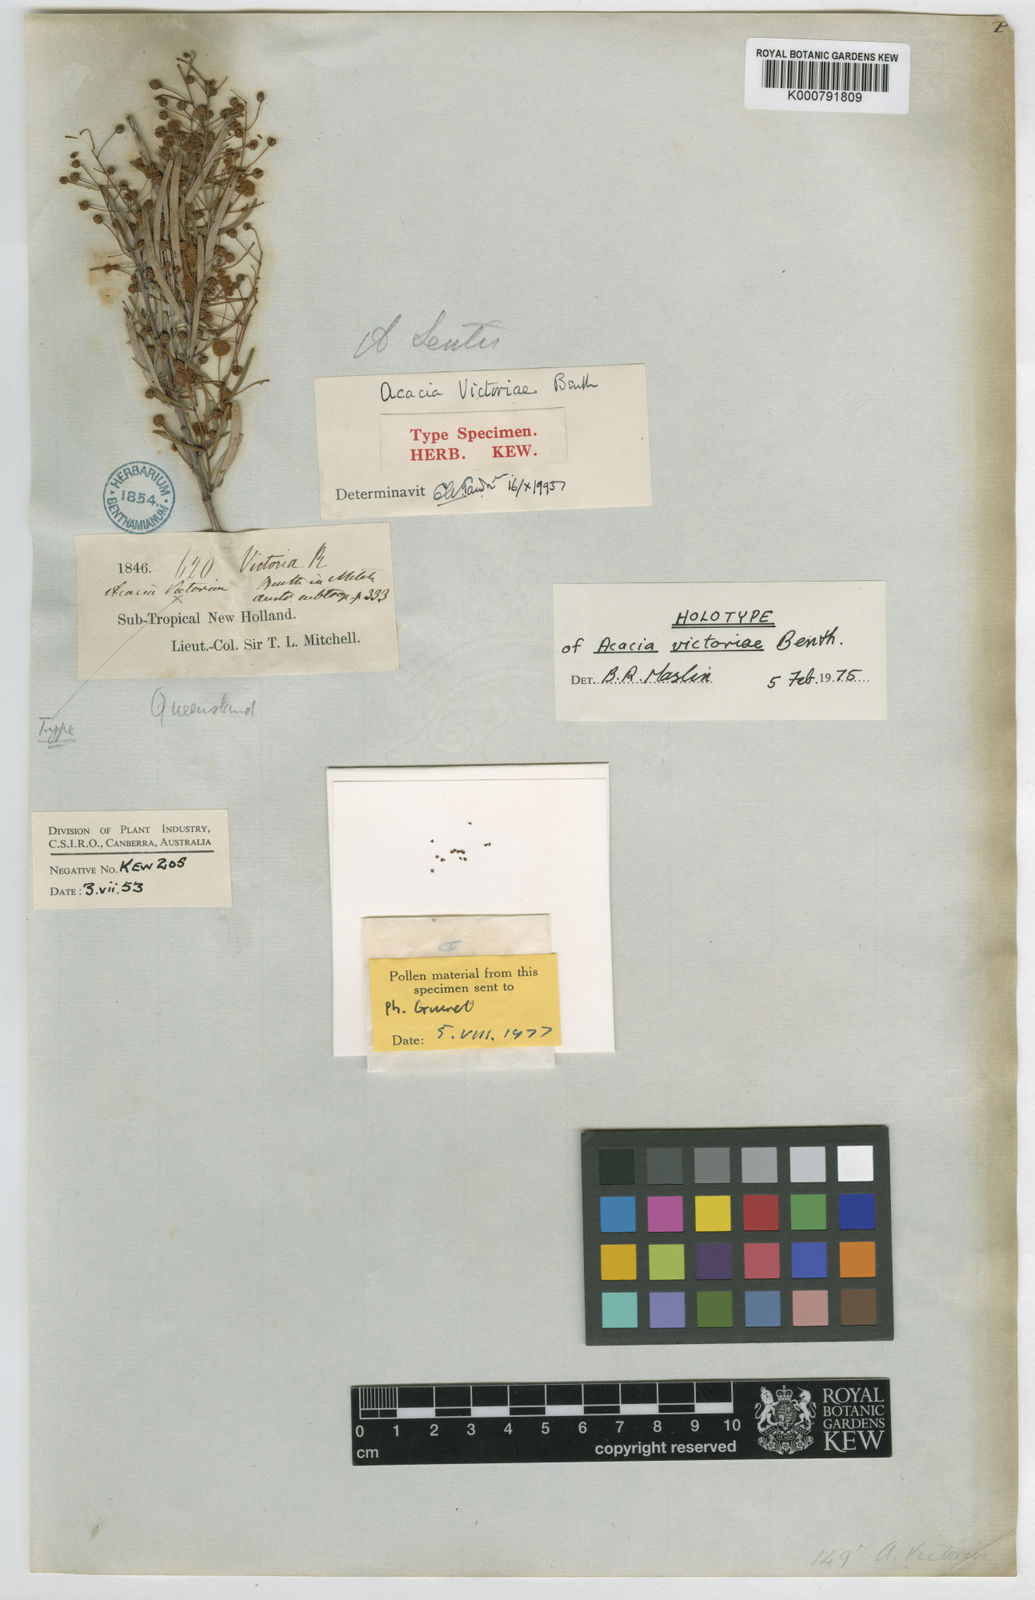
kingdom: Plantae
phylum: Tracheophyta
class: Magnoliopsida
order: Fabales
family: Fabaceae
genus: Acacia
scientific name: Acacia victoriae
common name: Bramble wattle
